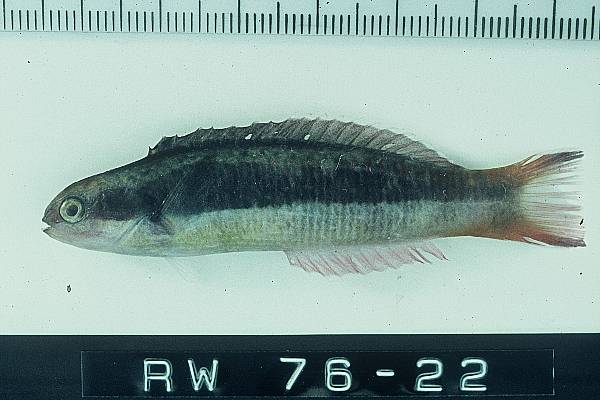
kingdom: Animalia
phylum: Chordata
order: Perciformes
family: Labridae
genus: Thalassoma
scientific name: Thalassoma amblycephalum
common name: Bluehead wrasse
